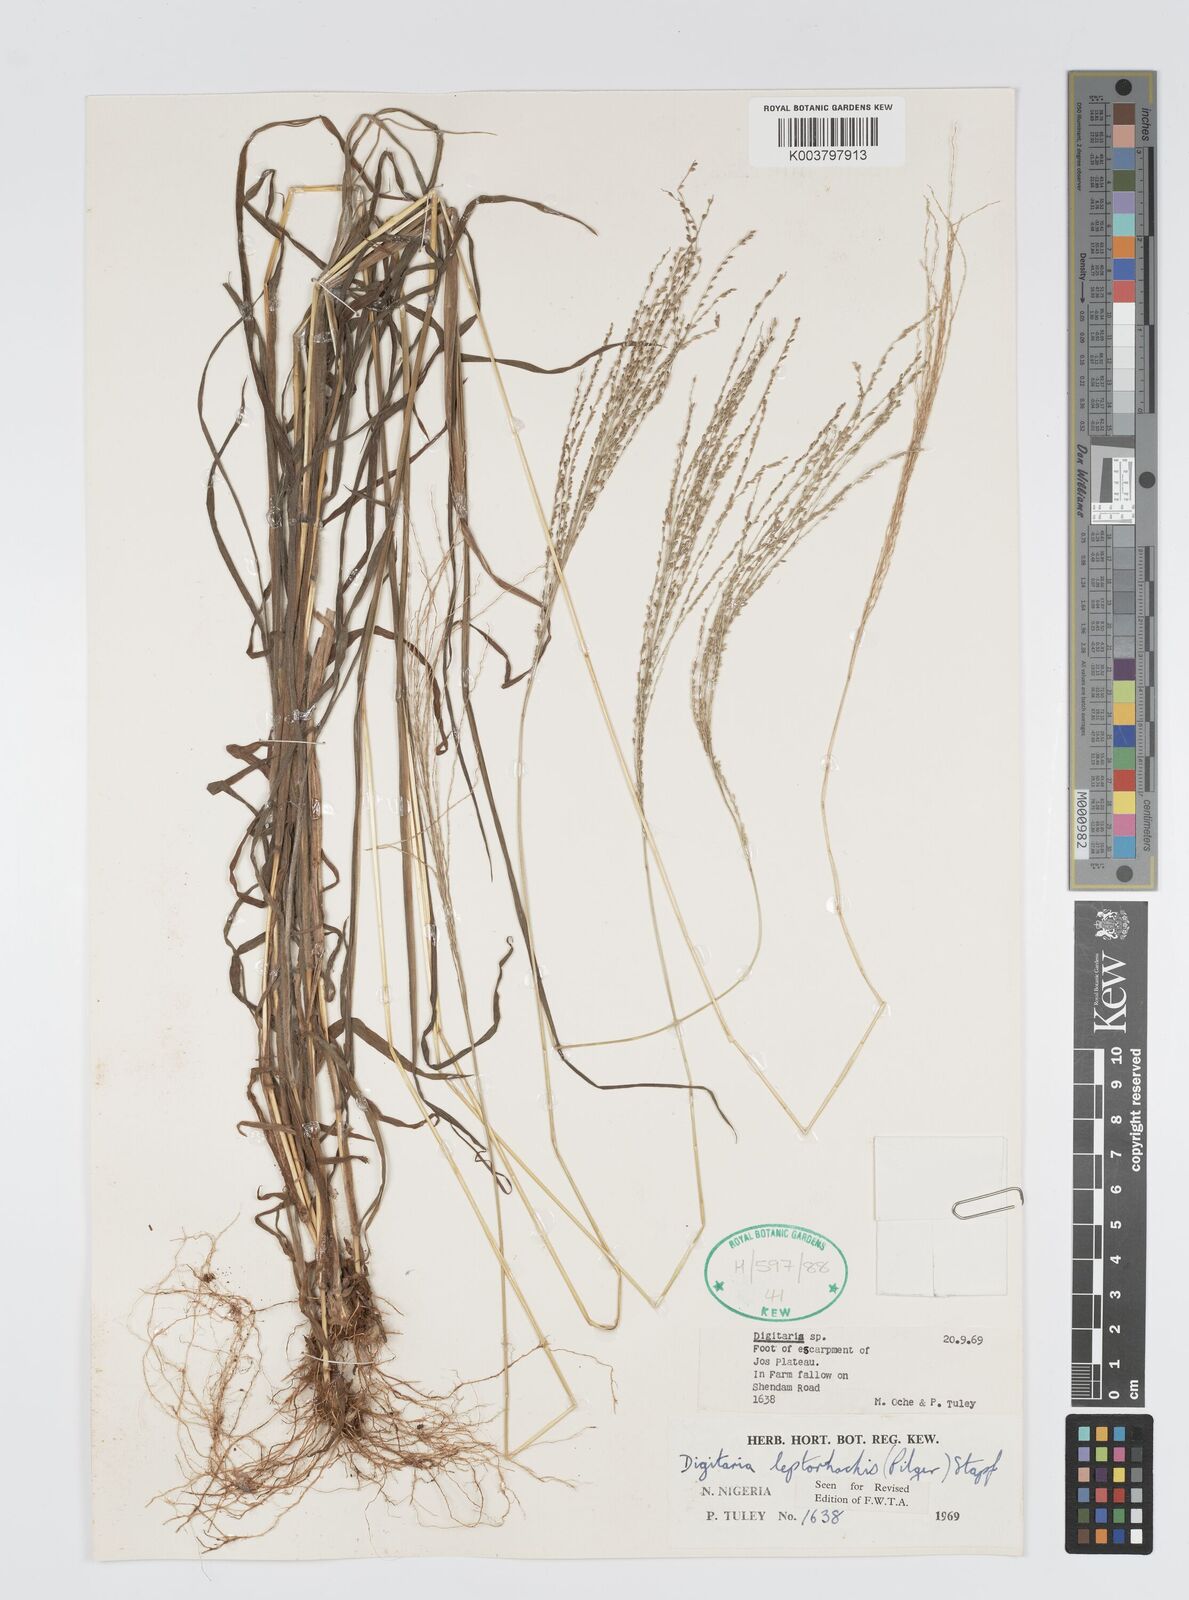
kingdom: Plantae
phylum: Tracheophyta
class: Liliopsida
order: Poales
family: Poaceae
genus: Digitaria
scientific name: Digitaria leptorhachis
